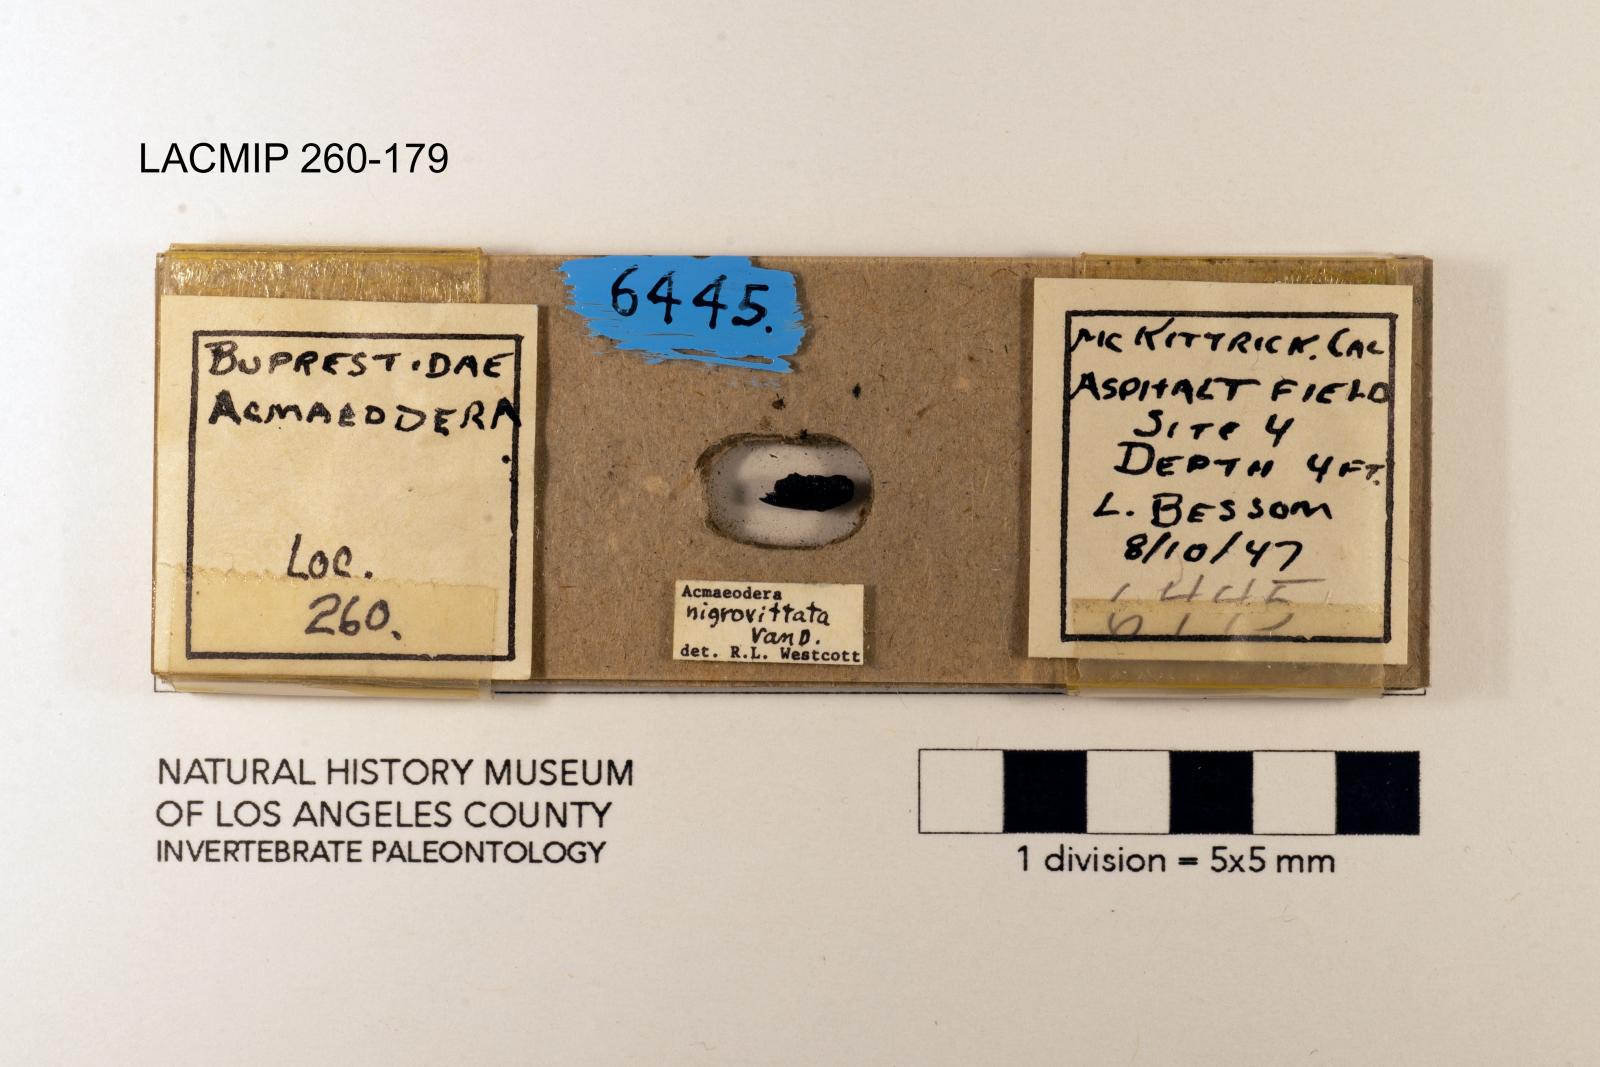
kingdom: Animalia
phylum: Arthropoda
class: Insecta
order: Coleoptera
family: Buprestidae
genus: Acmaeodera
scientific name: Acmaeodera nigrovittata
